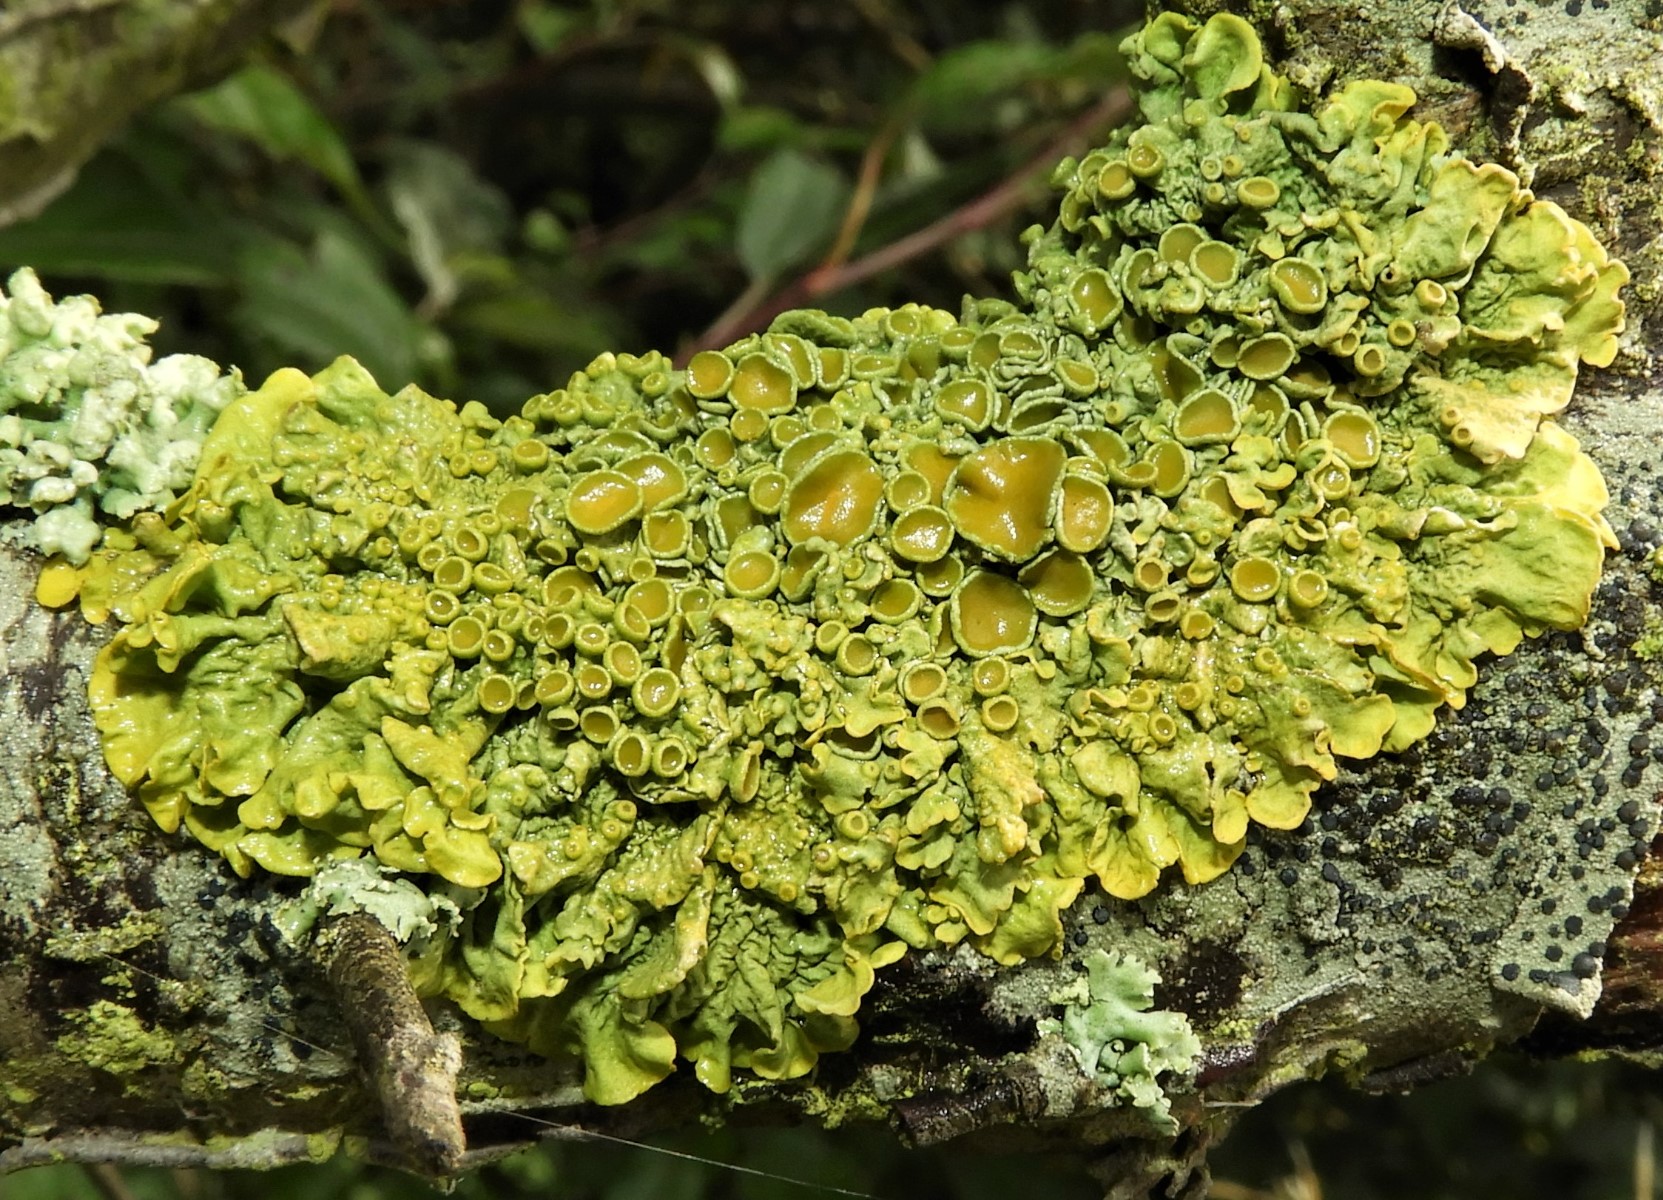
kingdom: Fungi
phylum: Ascomycota
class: Lecanoromycetes
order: Teloschistales
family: Teloschistaceae
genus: Xanthoria
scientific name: Xanthoria parietina
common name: almindelig væggelav
